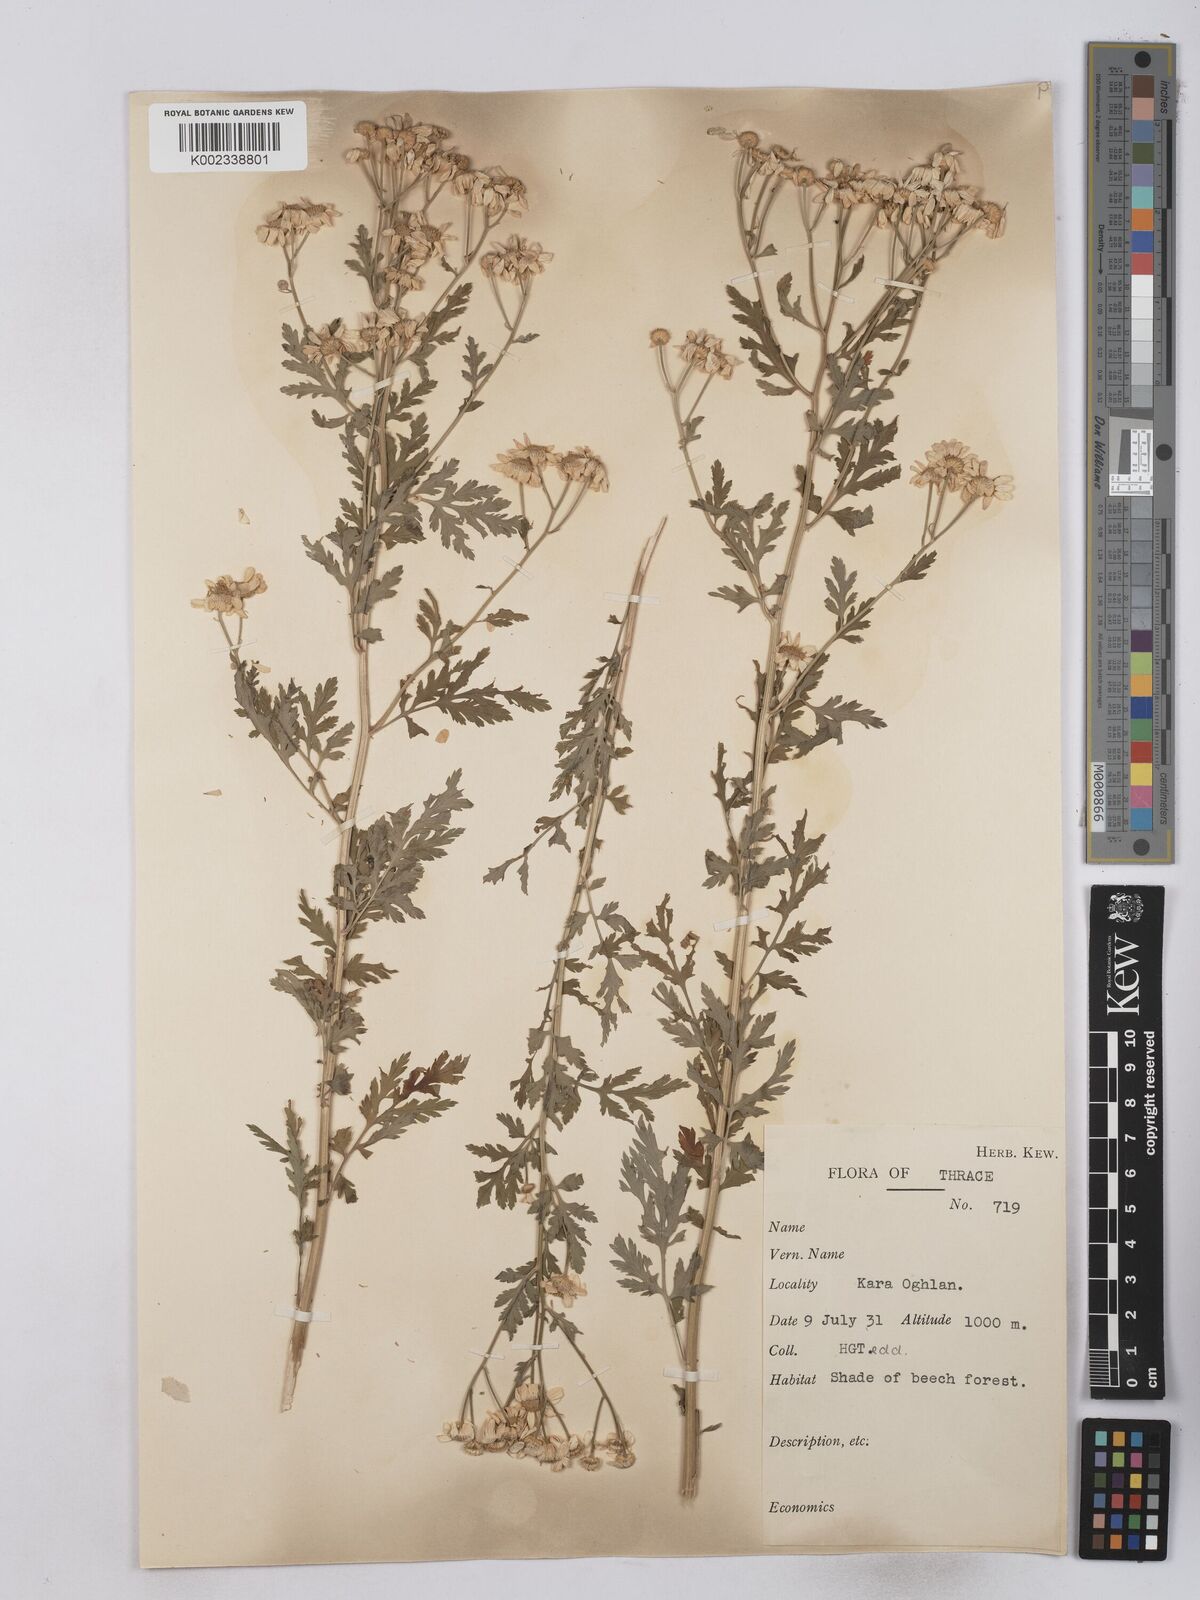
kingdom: Plantae
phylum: Tracheophyta
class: Magnoliopsida
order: Asterales
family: Asteraceae
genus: Tanacetum
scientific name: Tanacetum parthenium
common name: Feverfew
